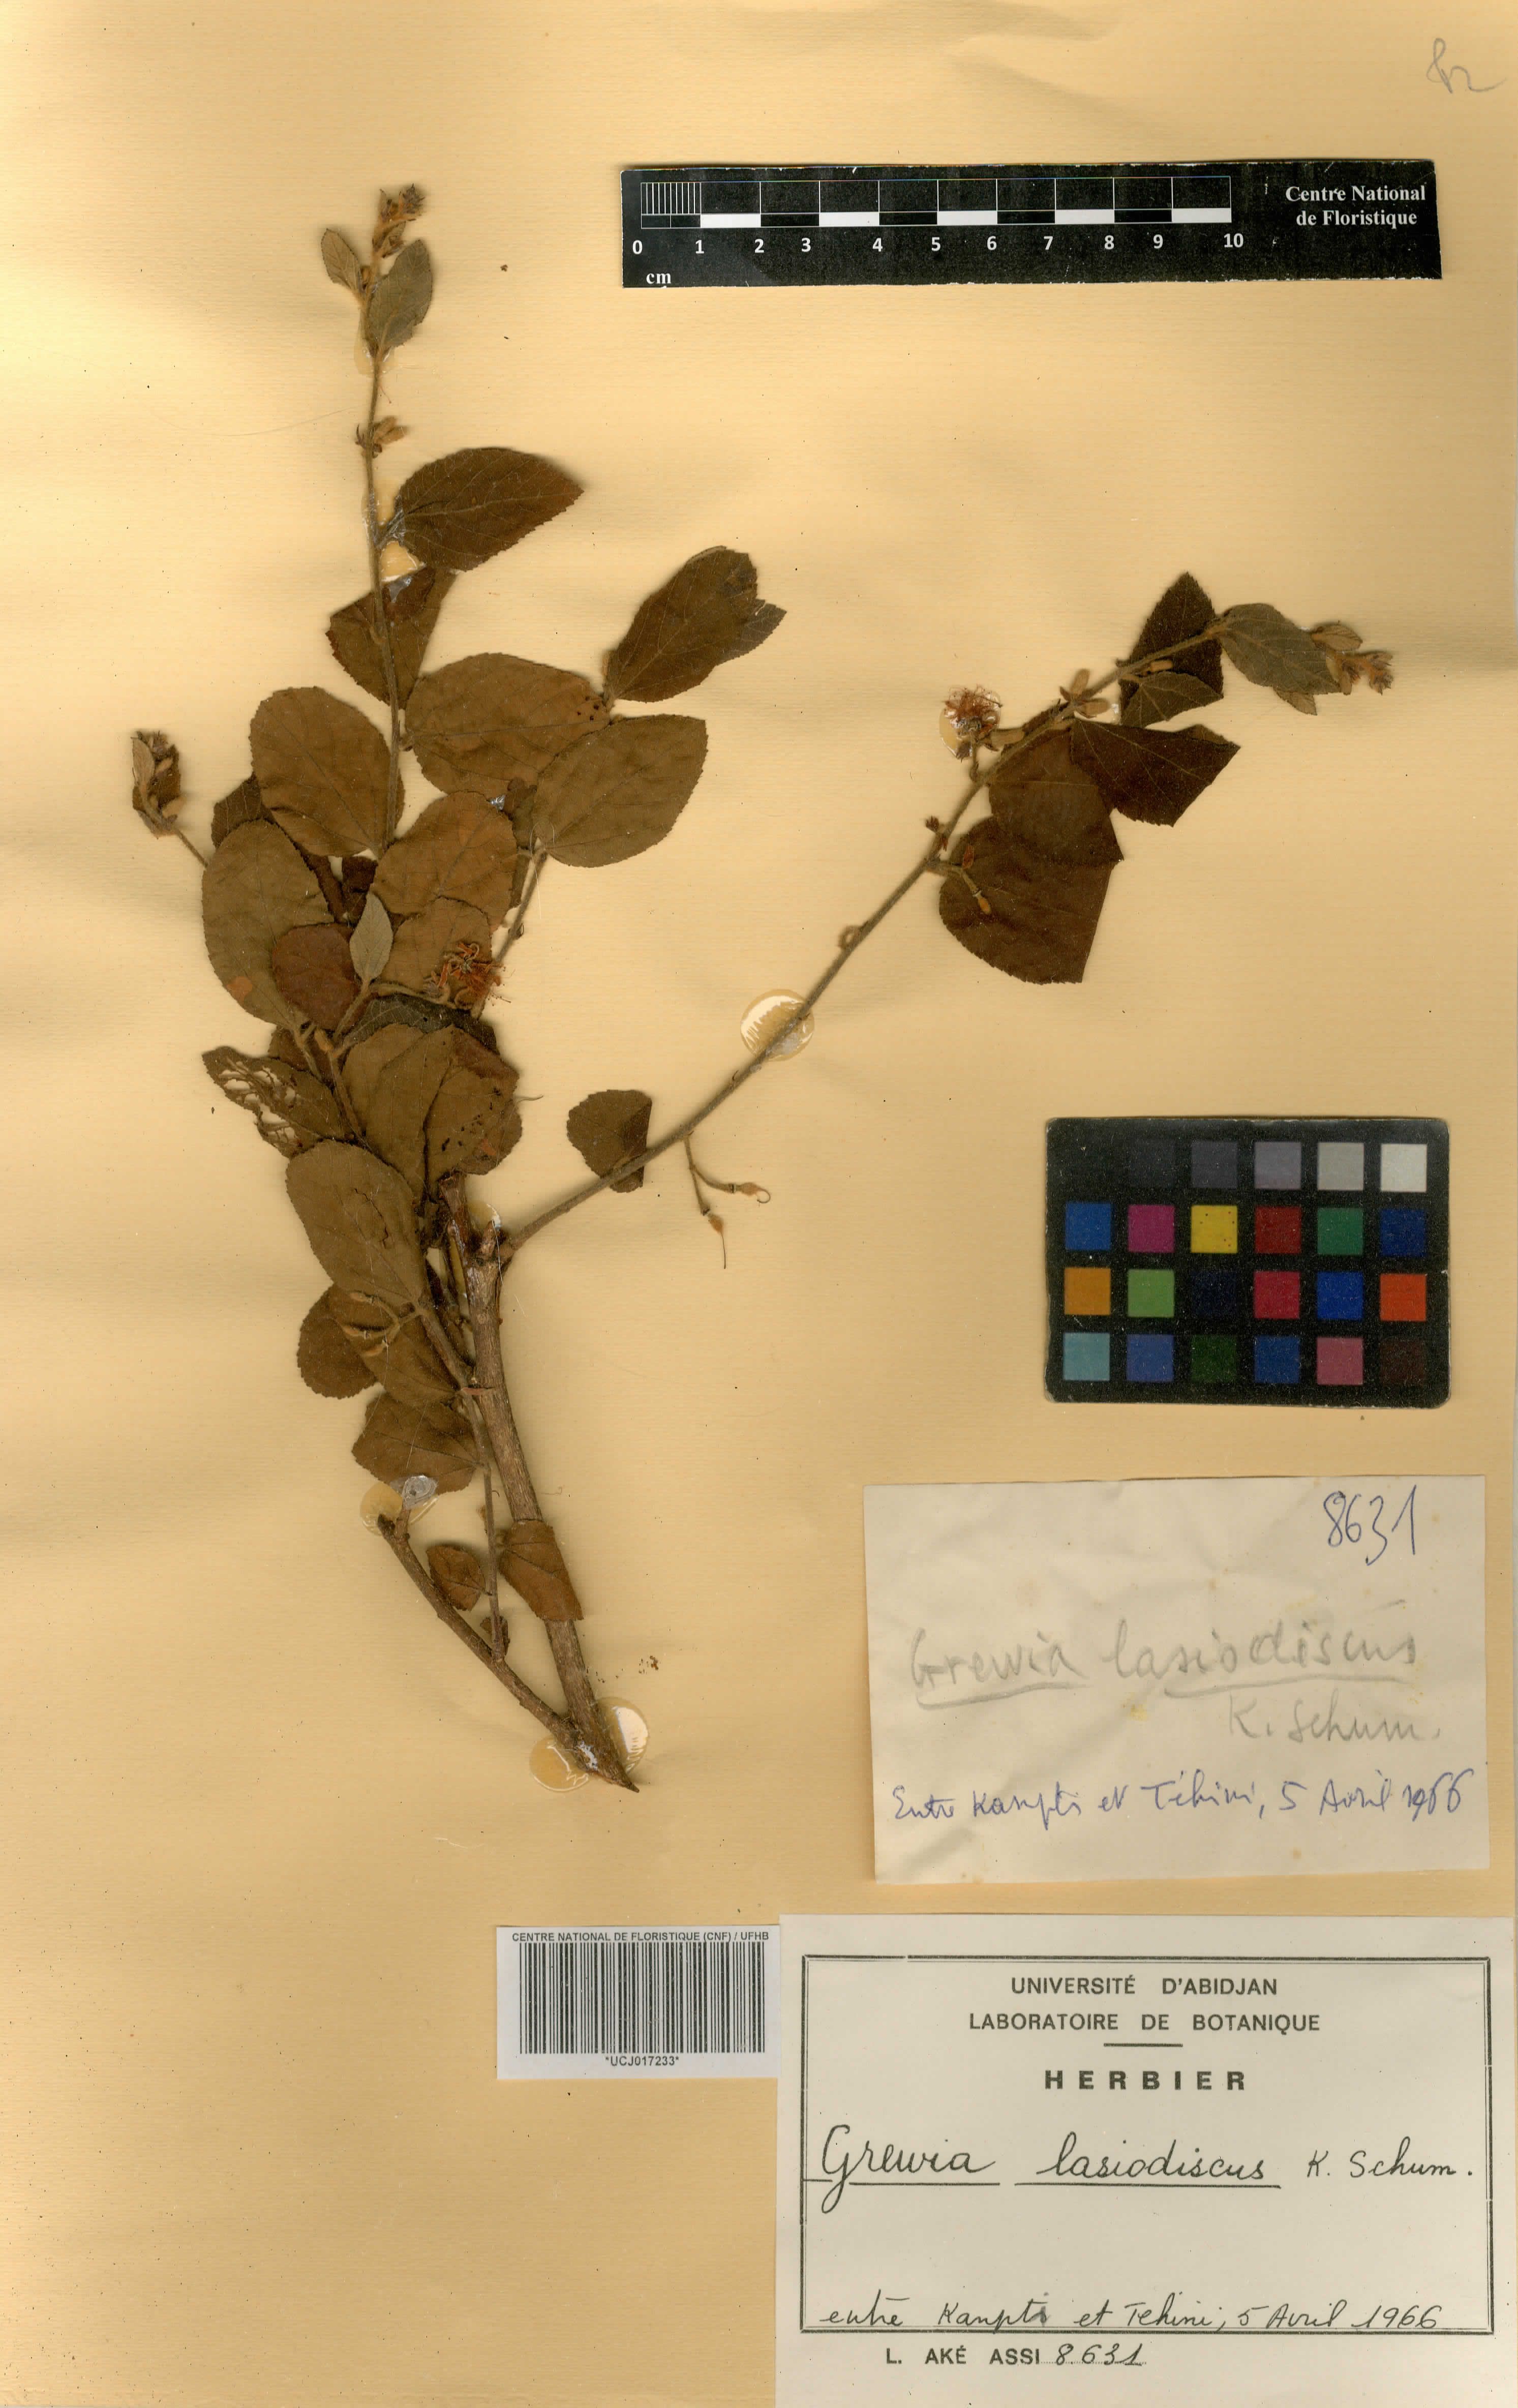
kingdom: Plantae
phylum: Tracheophyta
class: Magnoliopsida
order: Malvales
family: Malvaceae
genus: Grewia
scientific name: Grewia lasiodiscus
